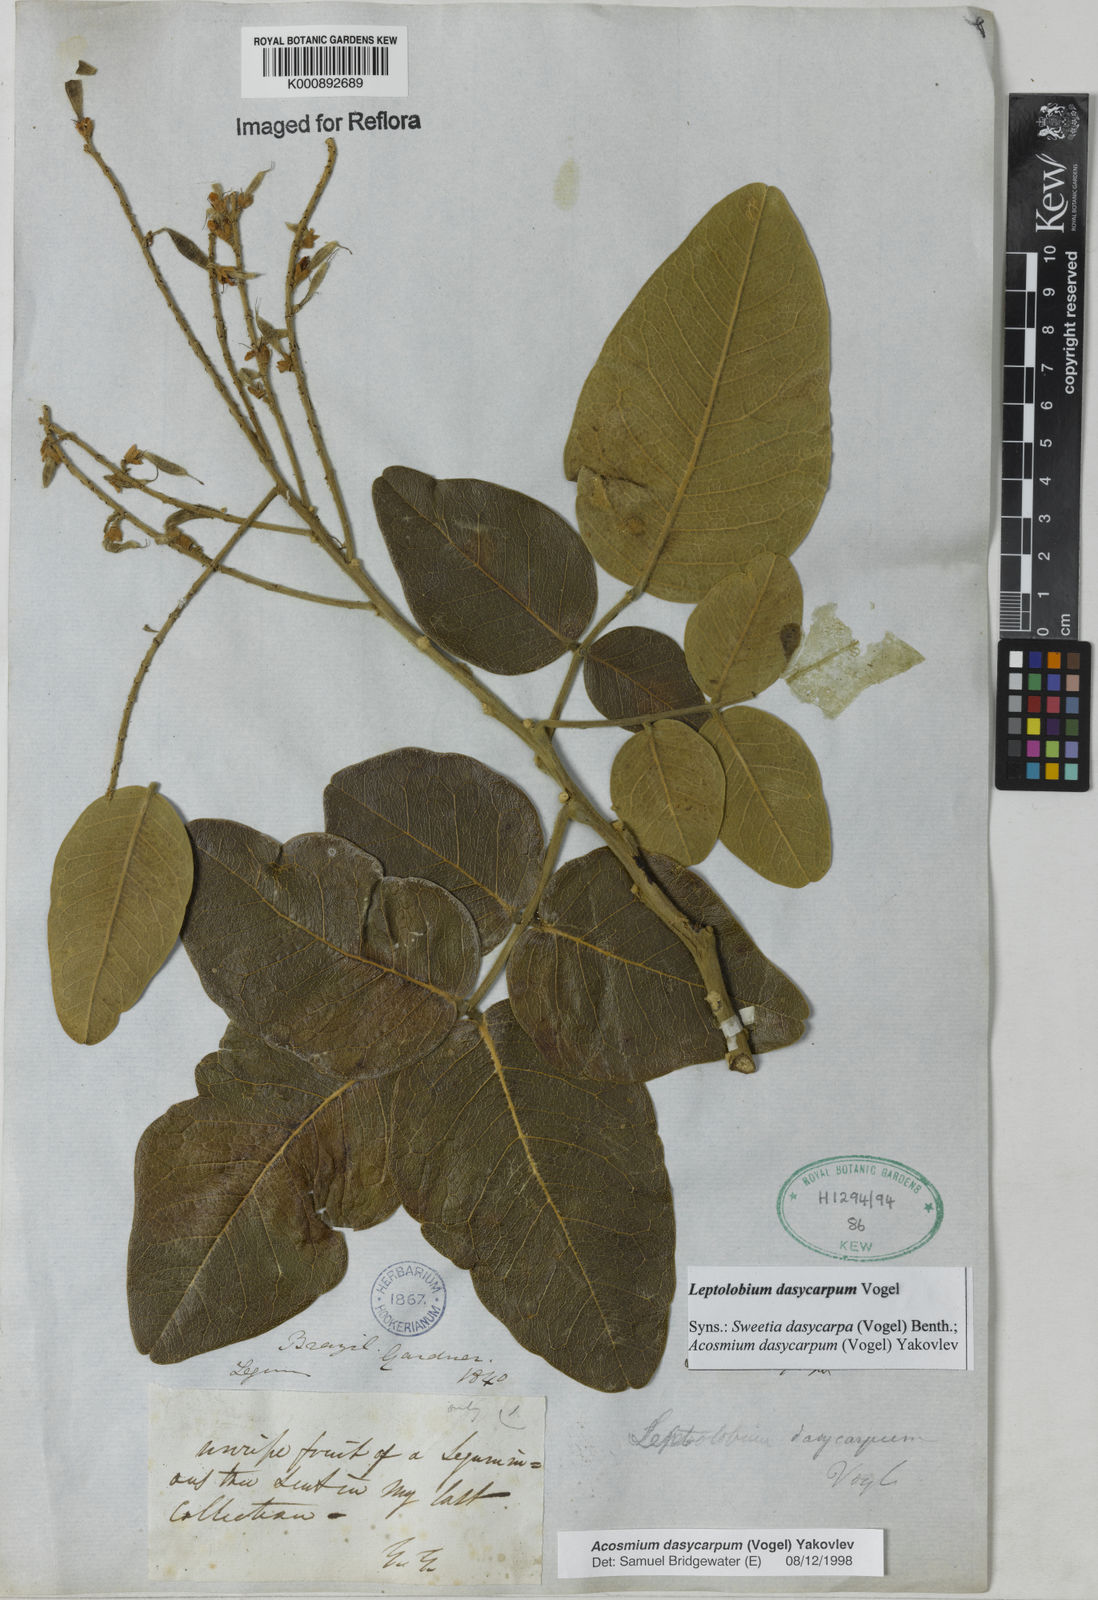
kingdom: Plantae
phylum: Tracheophyta
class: Magnoliopsida
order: Fabales
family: Fabaceae
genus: Leptolobium
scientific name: Leptolobium dasycarpum
